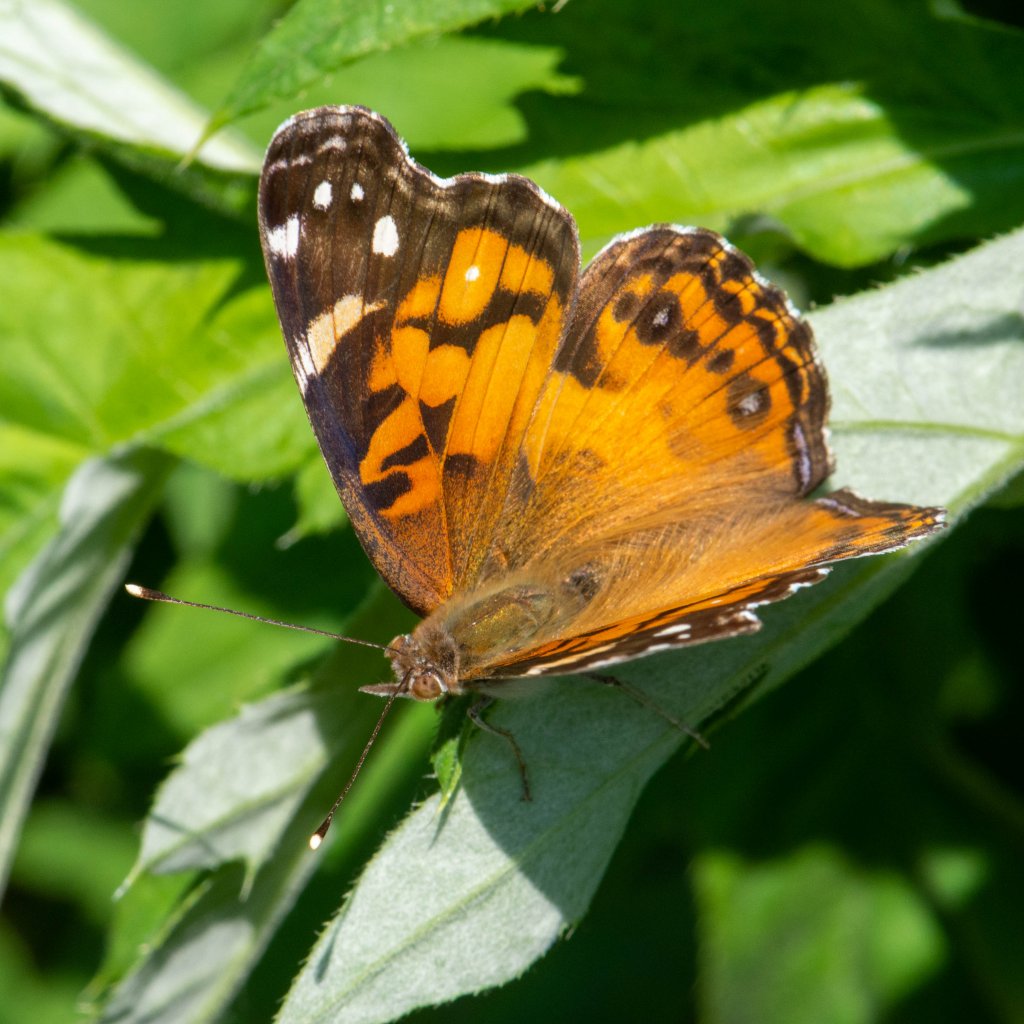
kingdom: Animalia
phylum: Arthropoda
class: Insecta
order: Lepidoptera
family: Nymphalidae
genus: Vanessa
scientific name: Vanessa virginiensis
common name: American Lady
